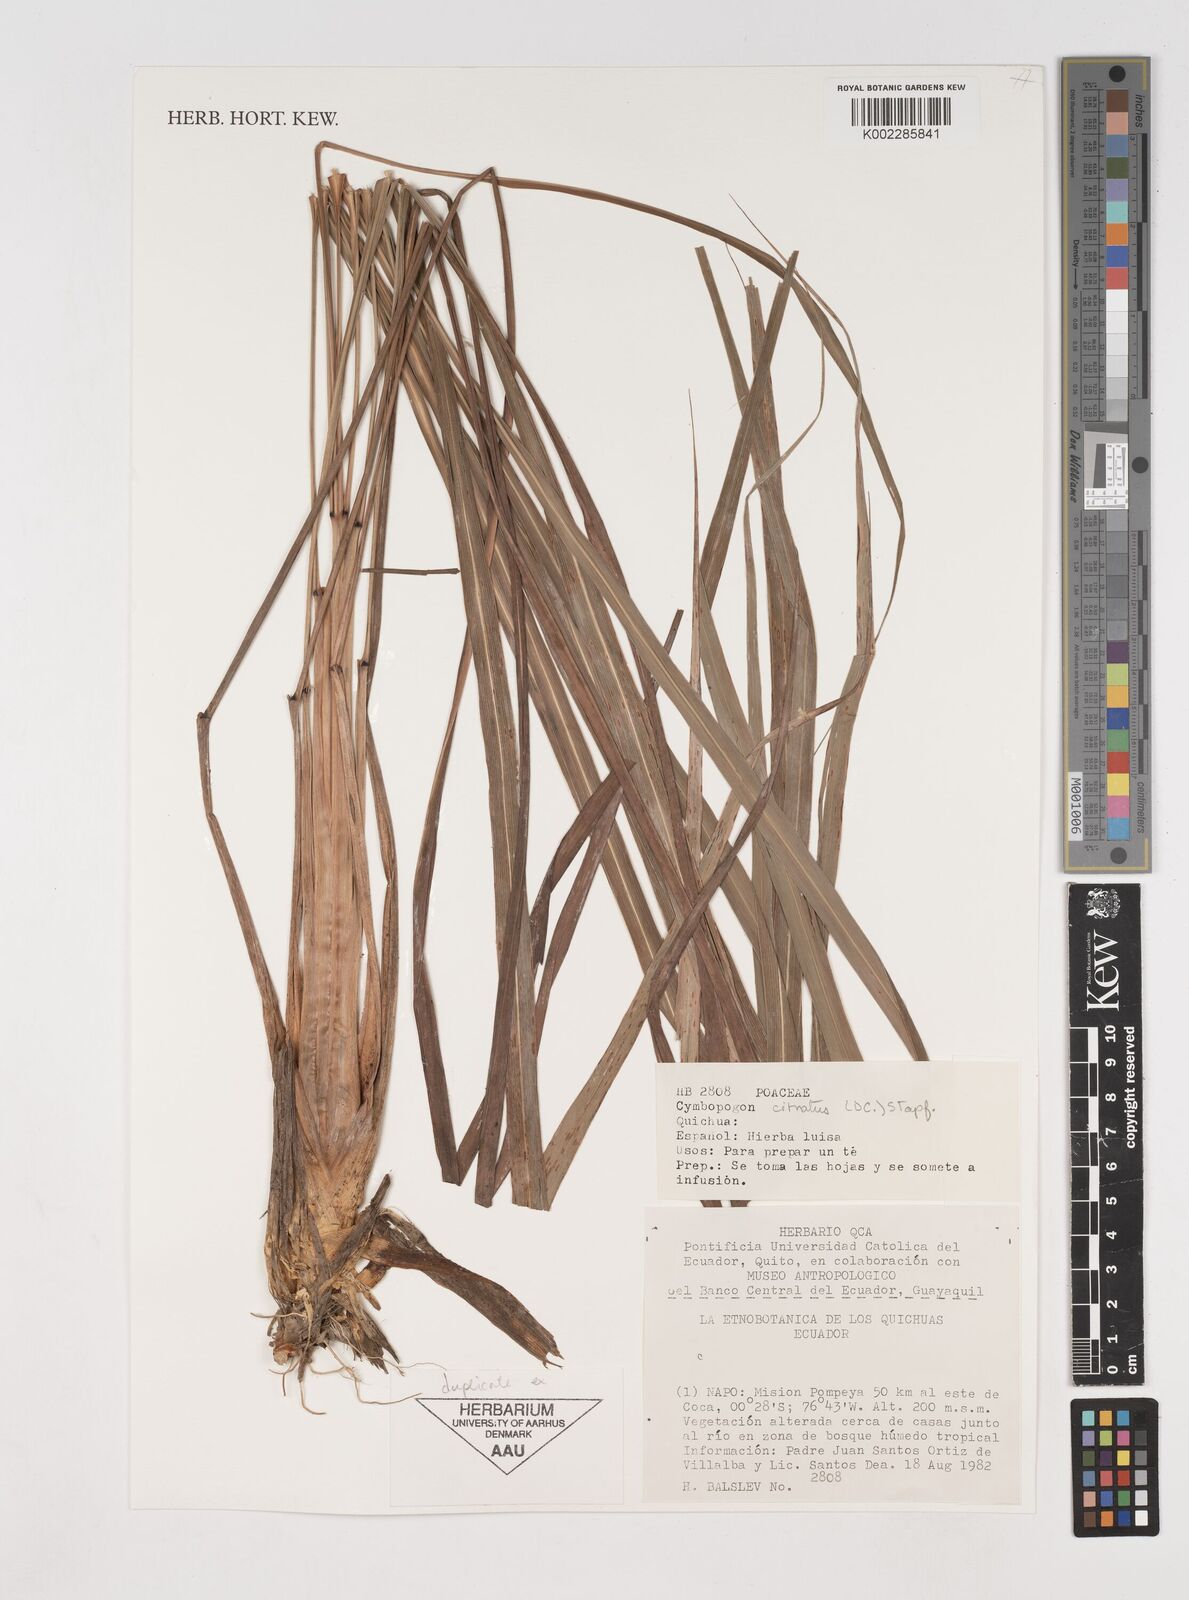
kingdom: Plantae
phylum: Tracheophyta
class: Liliopsida
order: Poales
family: Poaceae
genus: Cymbopogon
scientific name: Cymbopogon citratus
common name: Lemon grass
